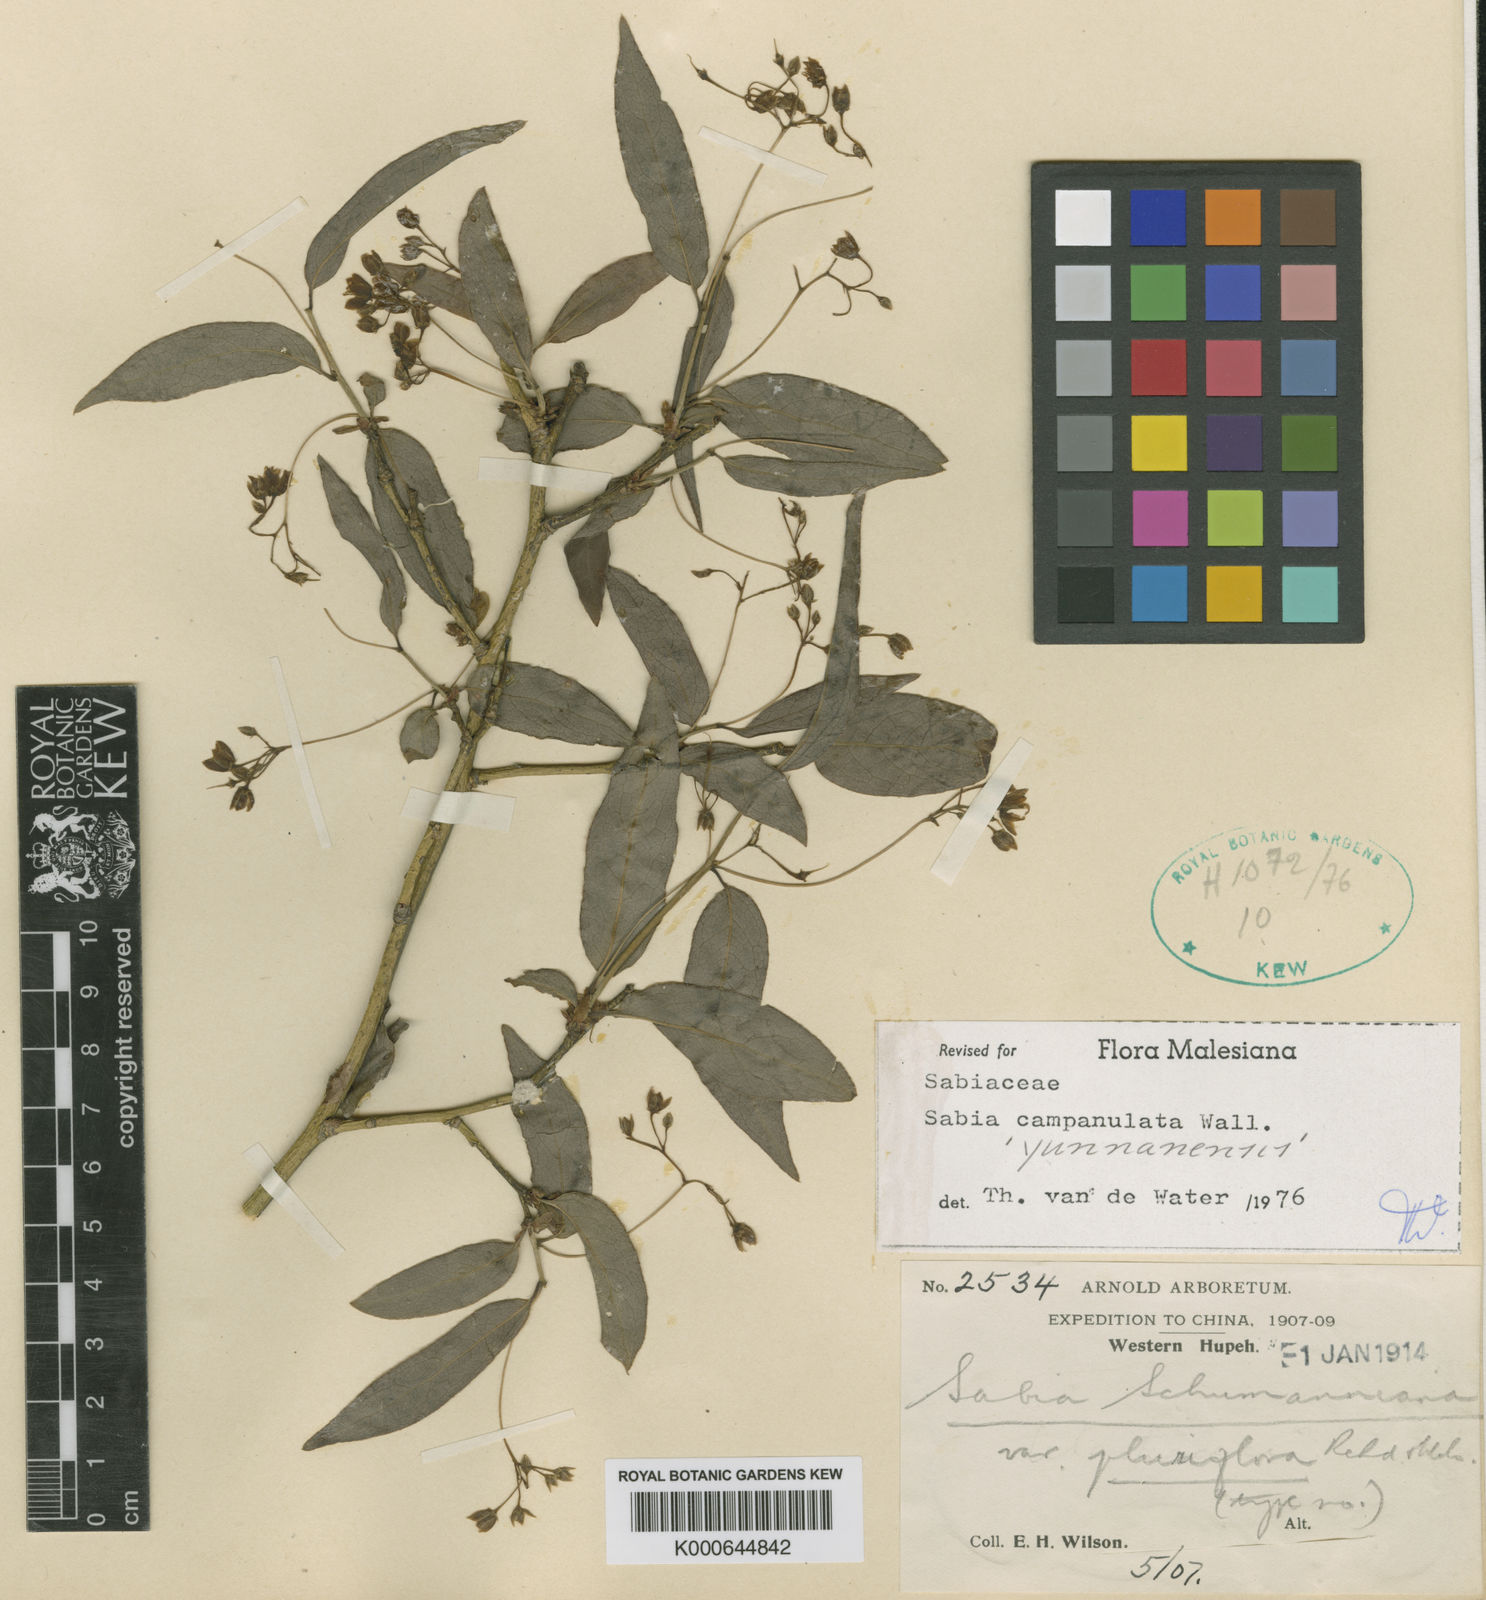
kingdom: Plantae
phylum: Tracheophyta
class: Magnoliopsida
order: Proteales
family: Sabiaceae
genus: Sabia
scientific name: Sabia campanulata
